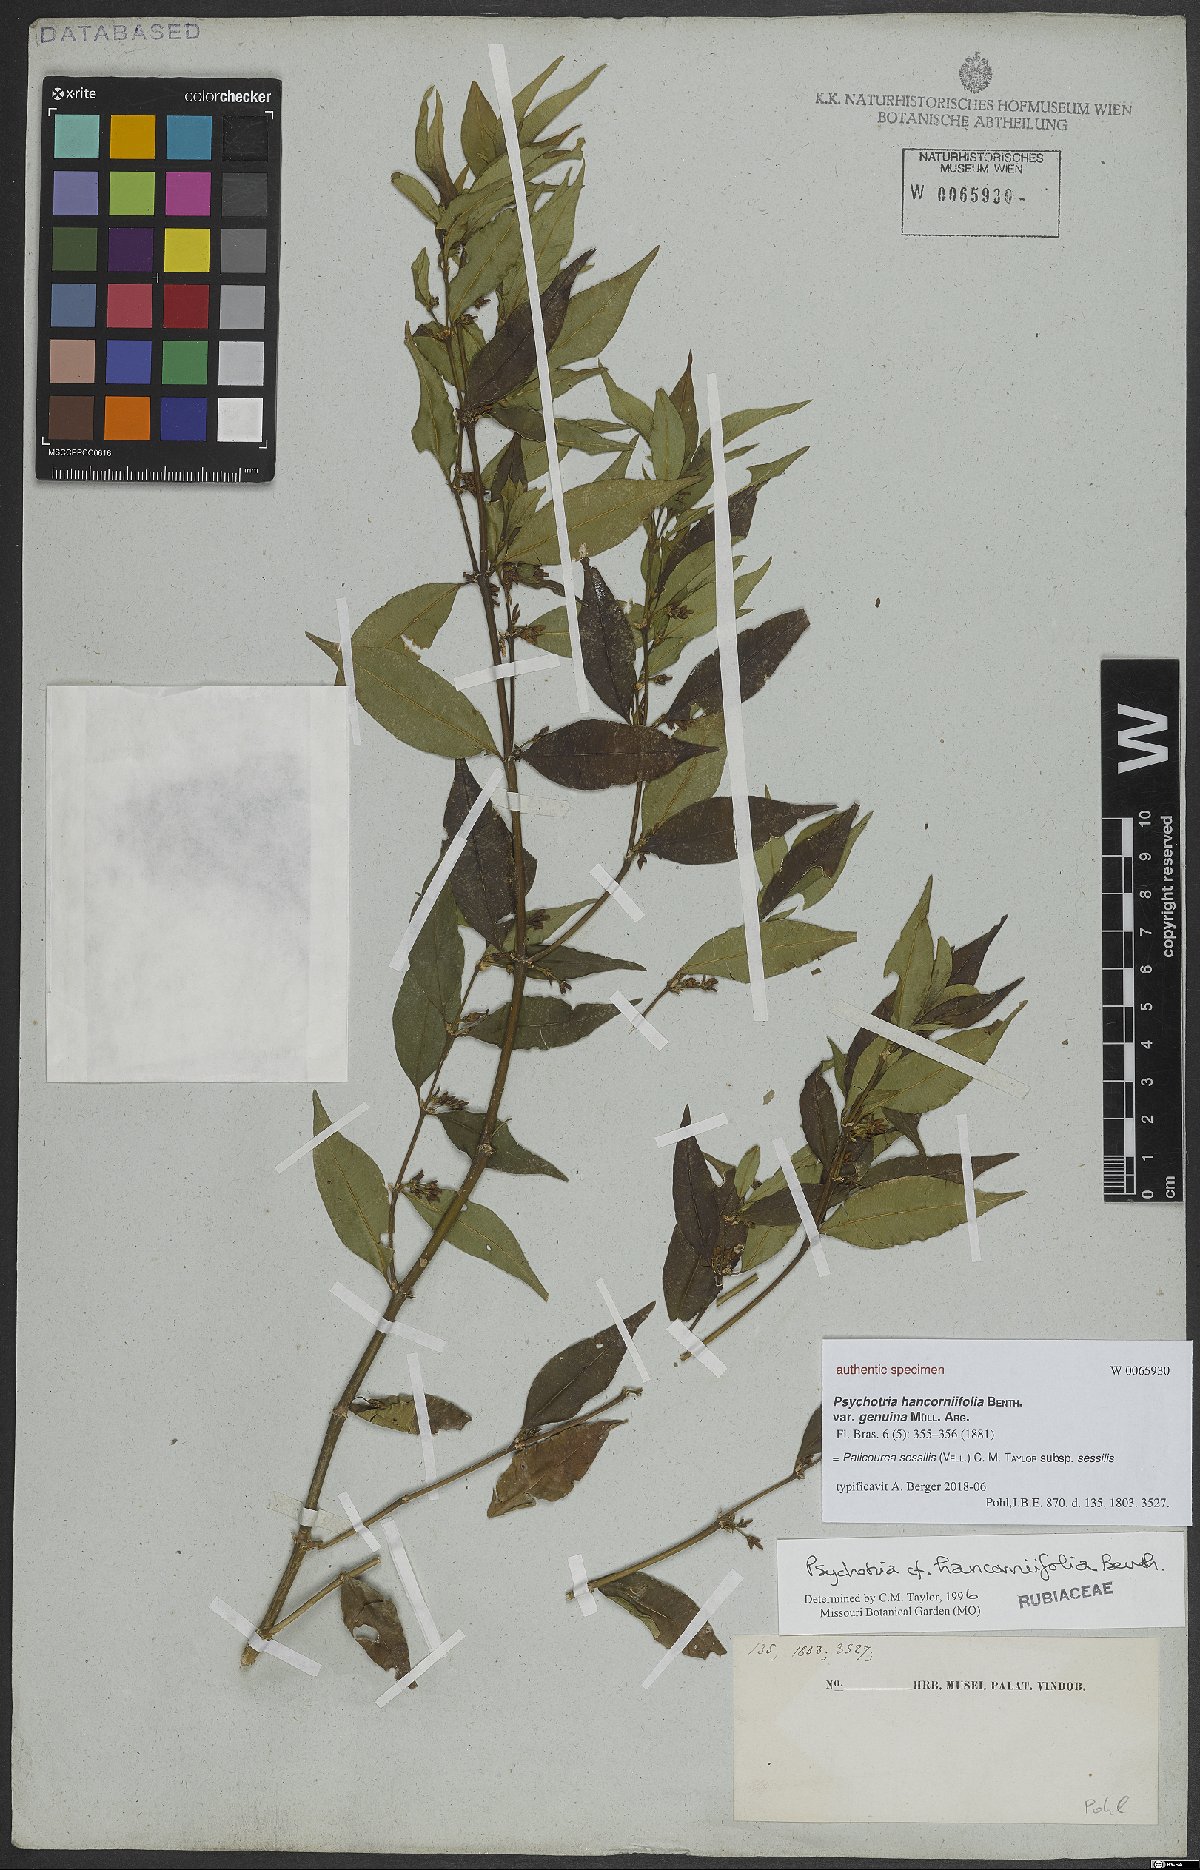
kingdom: Plantae
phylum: Tracheophyta
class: Magnoliopsida
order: Gentianales
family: Rubiaceae
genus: Palicourea
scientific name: Palicourea sessilis
